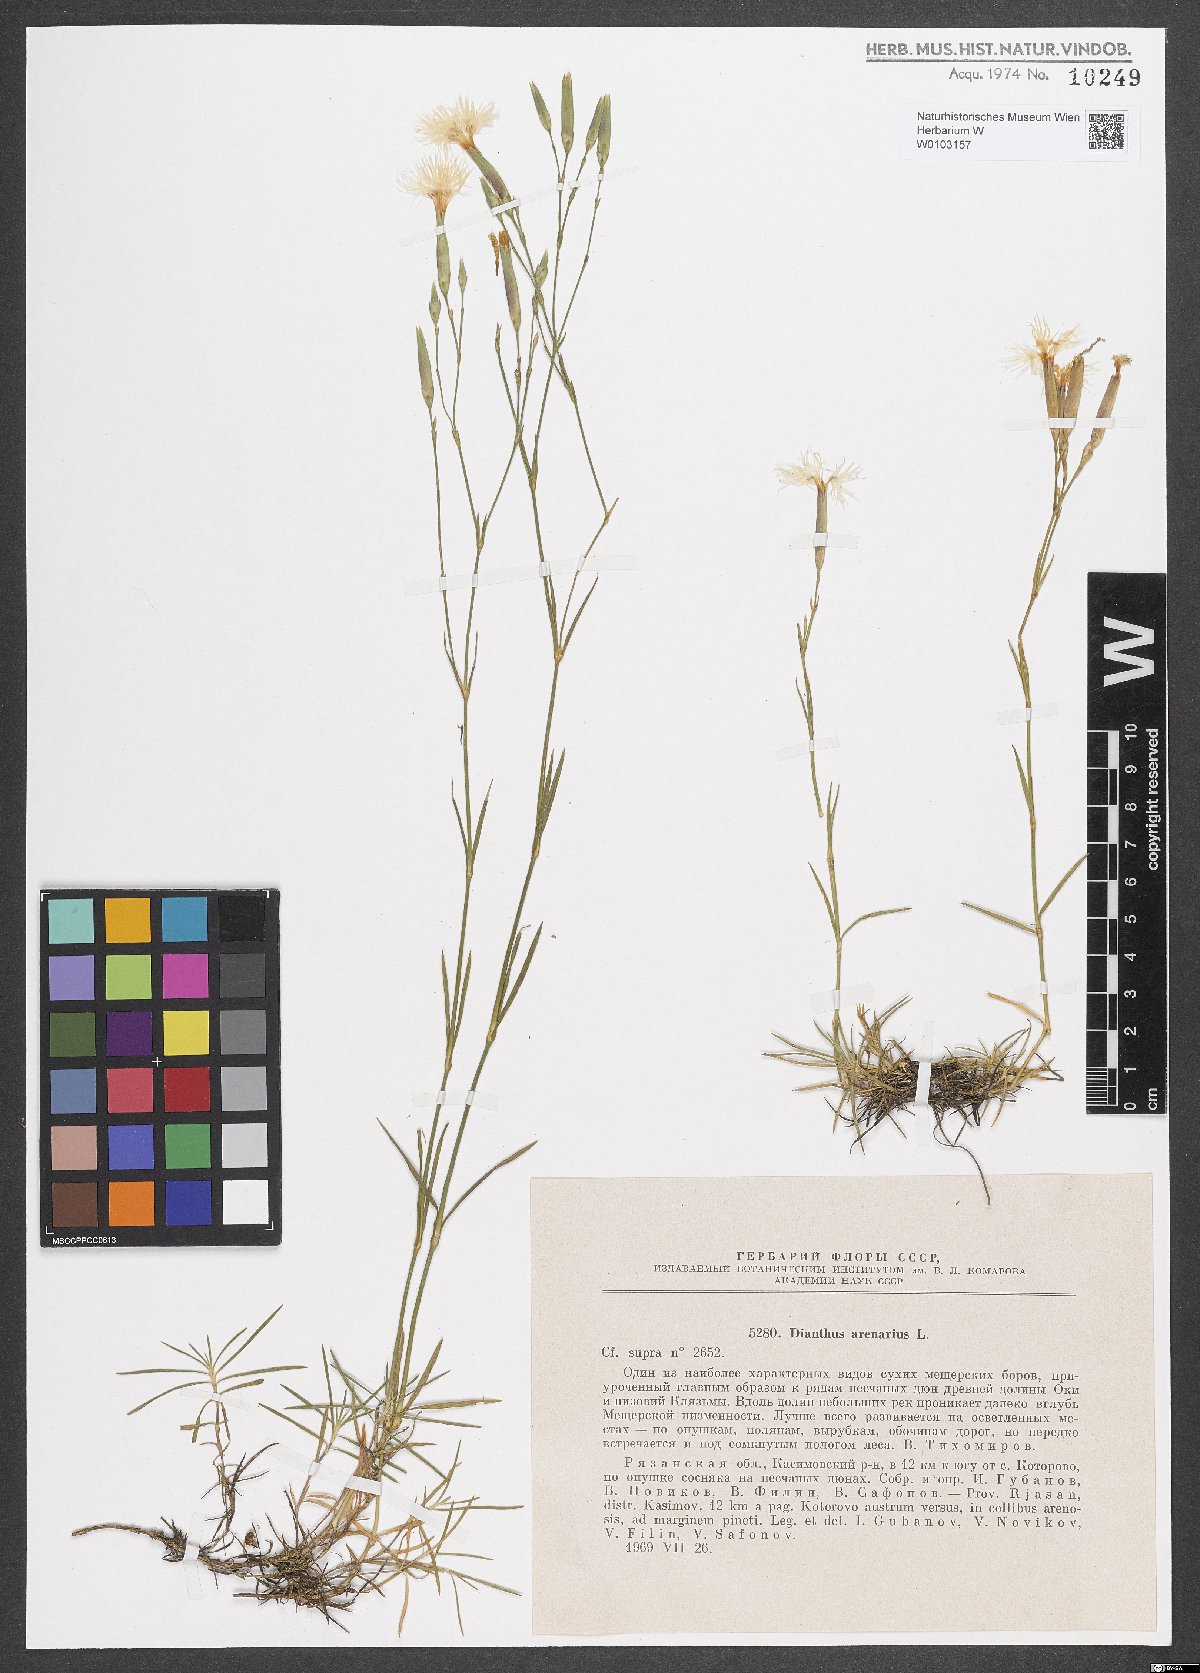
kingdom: Plantae
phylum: Tracheophyta
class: Magnoliopsida
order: Caryophyllales
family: Caryophyllaceae
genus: Dianthus
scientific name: Dianthus arenarius
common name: Stone pink
